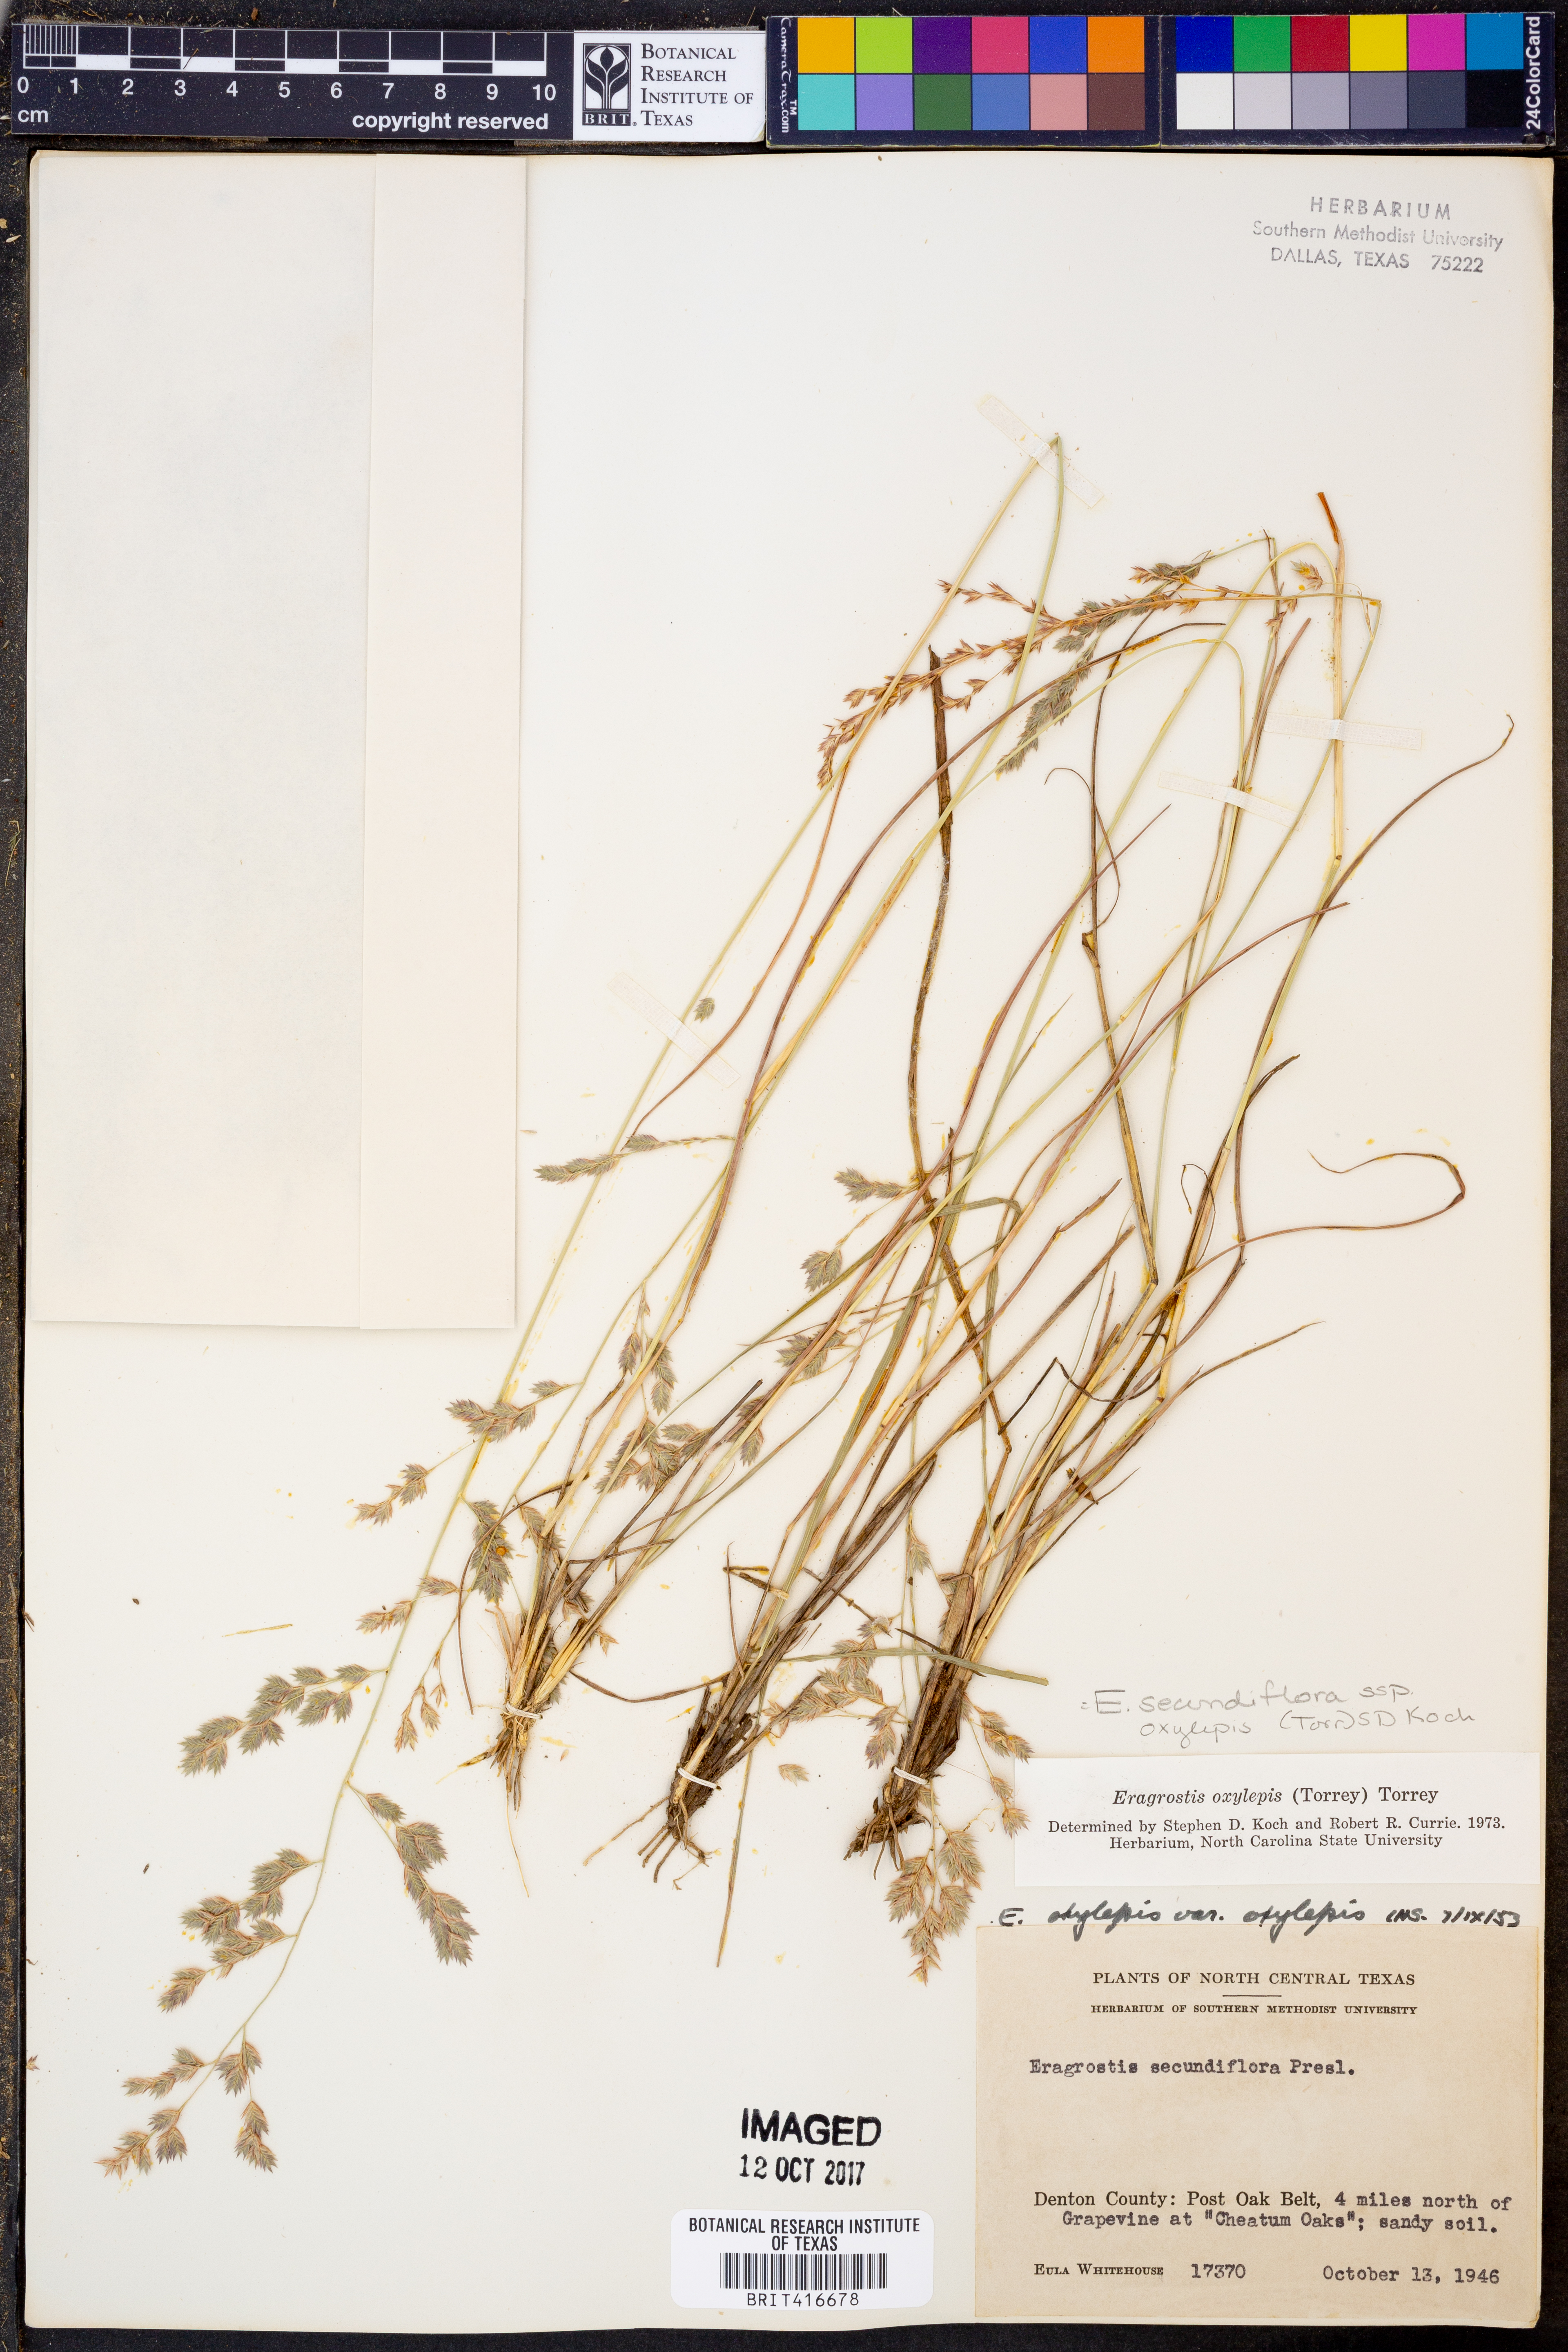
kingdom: Plantae
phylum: Tracheophyta
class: Liliopsida
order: Poales
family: Poaceae
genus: Eragrostis
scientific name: Eragrostis secundiflora
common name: Red love grass
